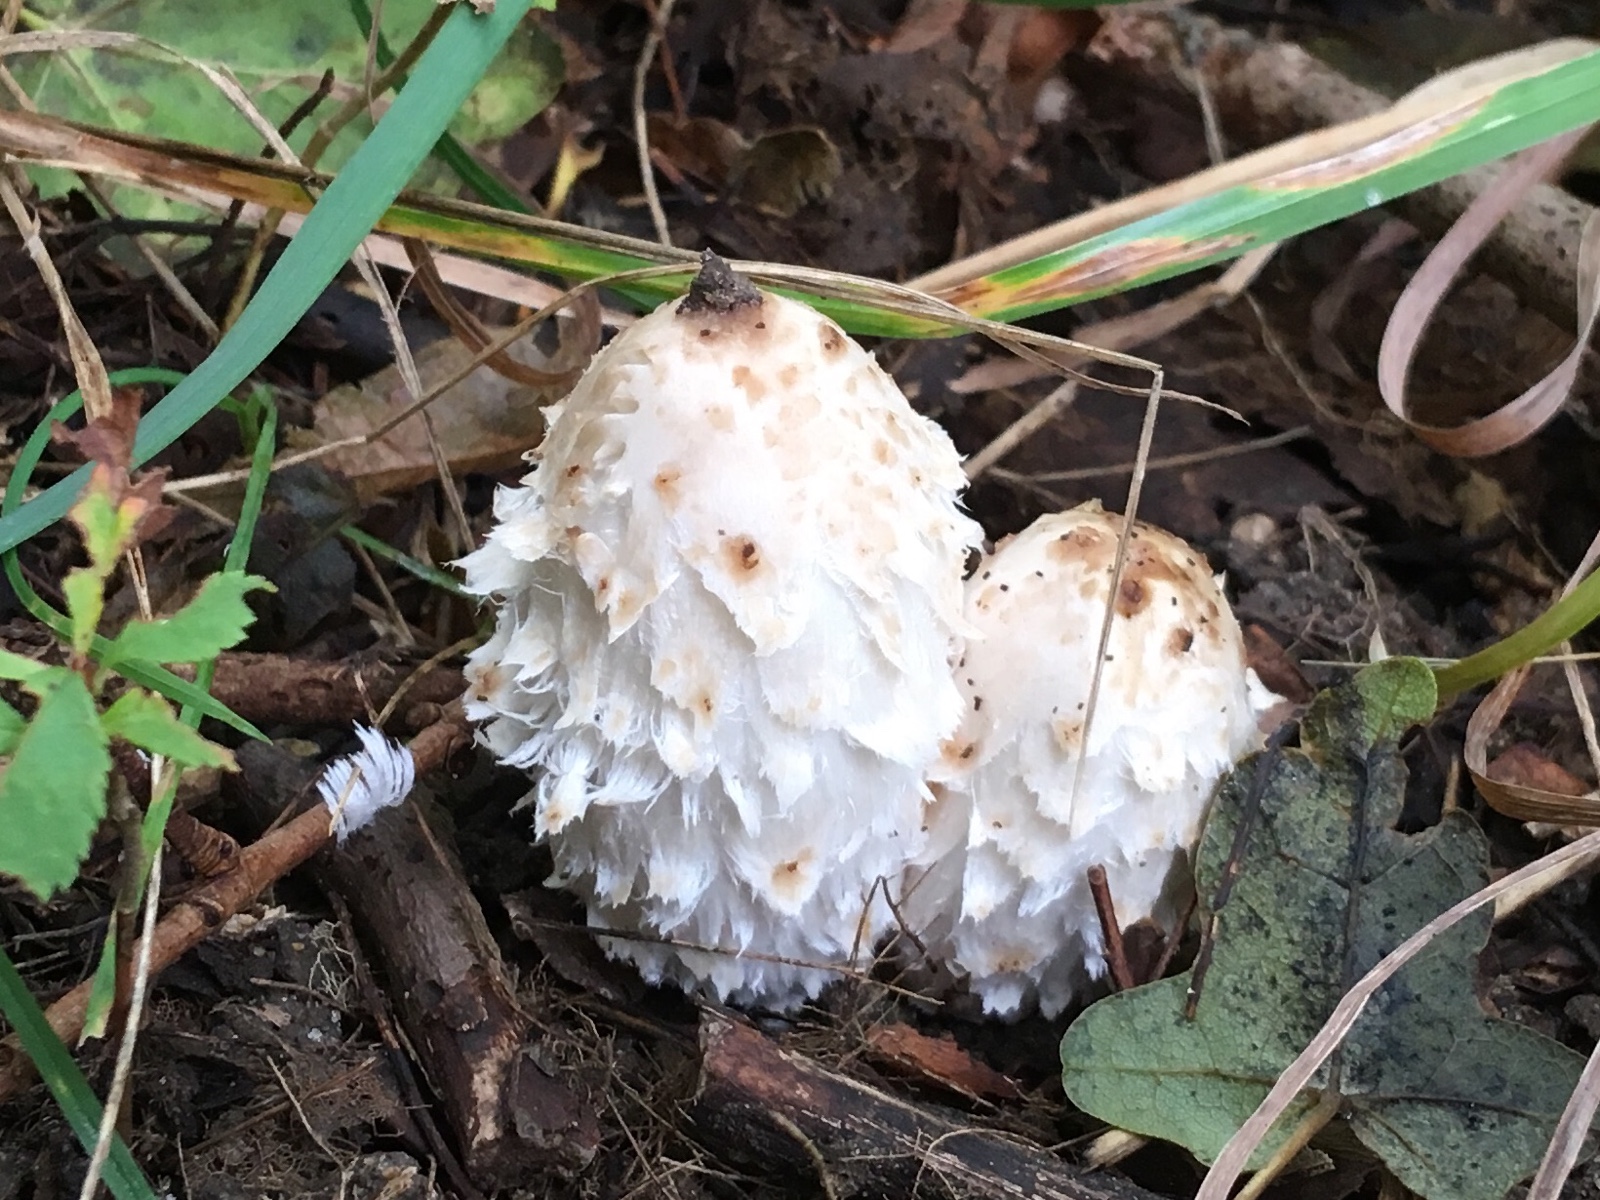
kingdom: Fungi
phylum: Basidiomycota
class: Agaricomycetes
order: Agaricales
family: Agaricaceae
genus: Coprinus
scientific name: Coprinus comatus
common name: stor parykhat
